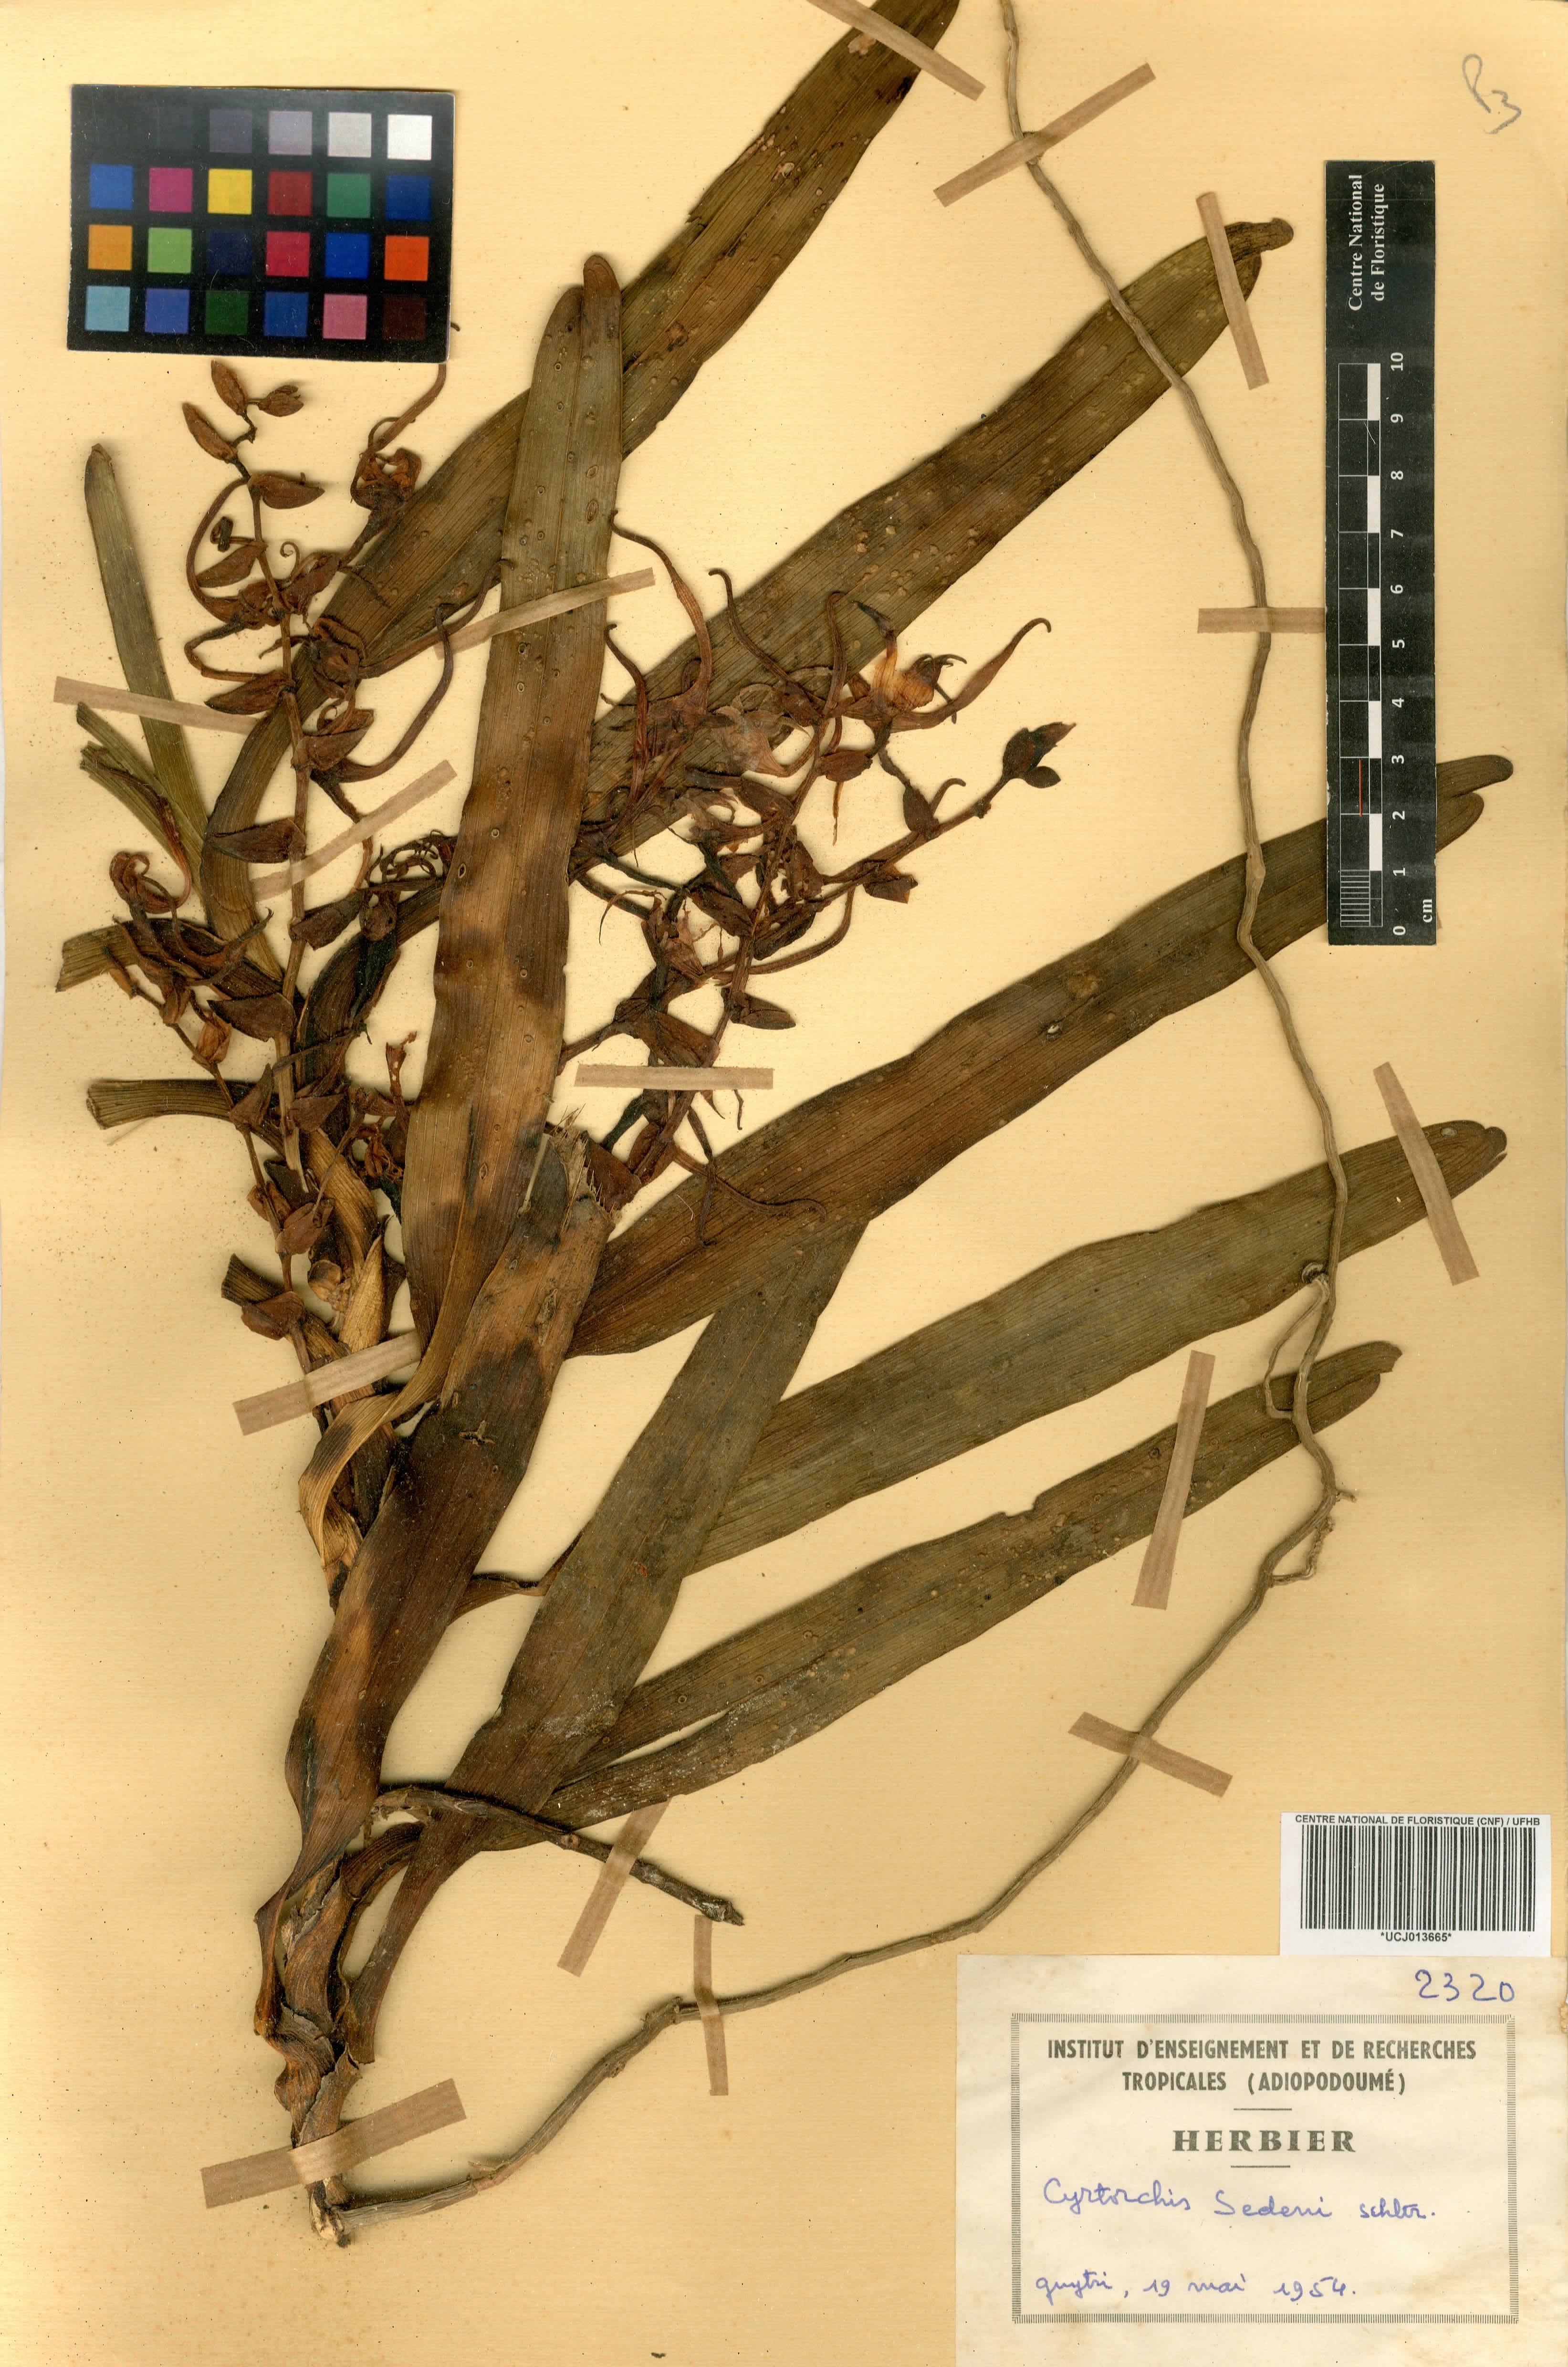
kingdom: Plantae
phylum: Tracheophyta
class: Liliopsida
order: Asparagales
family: Orchidaceae
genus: Cyrtorchis
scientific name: Cyrtorchis arcuata
